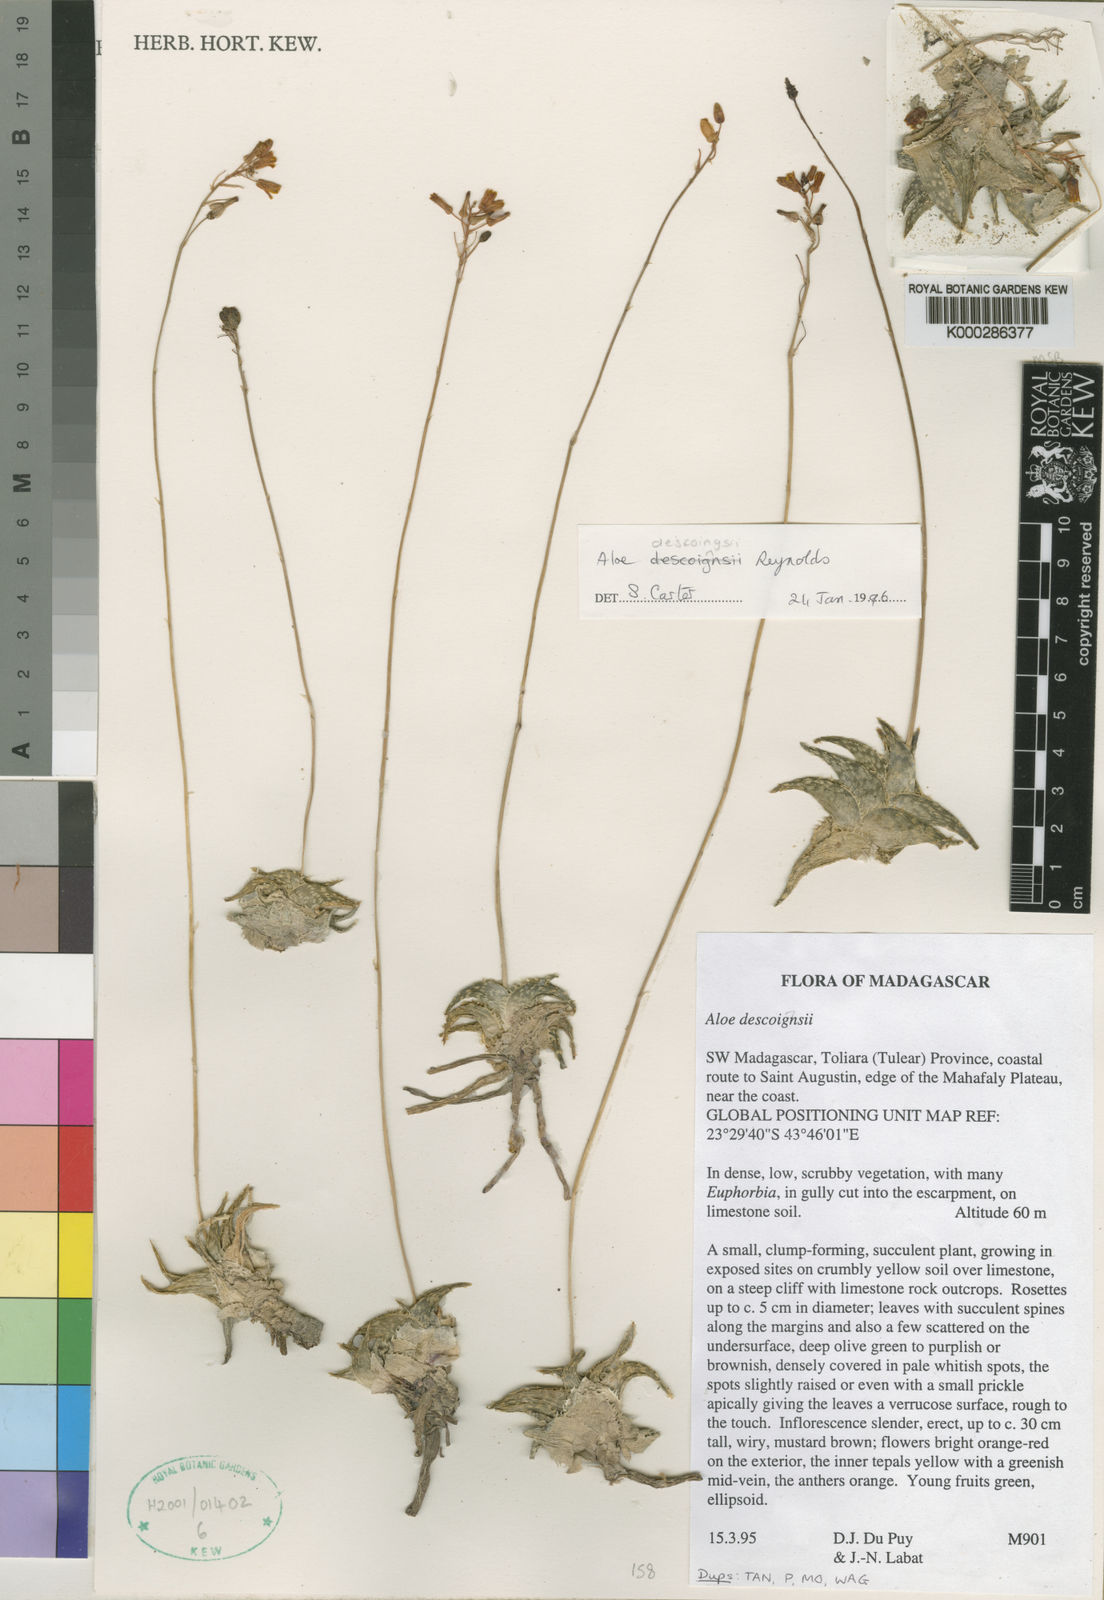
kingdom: Plantae
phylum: Tracheophyta
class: Liliopsida
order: Asparagales
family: Asphodelaceae
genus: Aloe
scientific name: Aloe descoingsii
